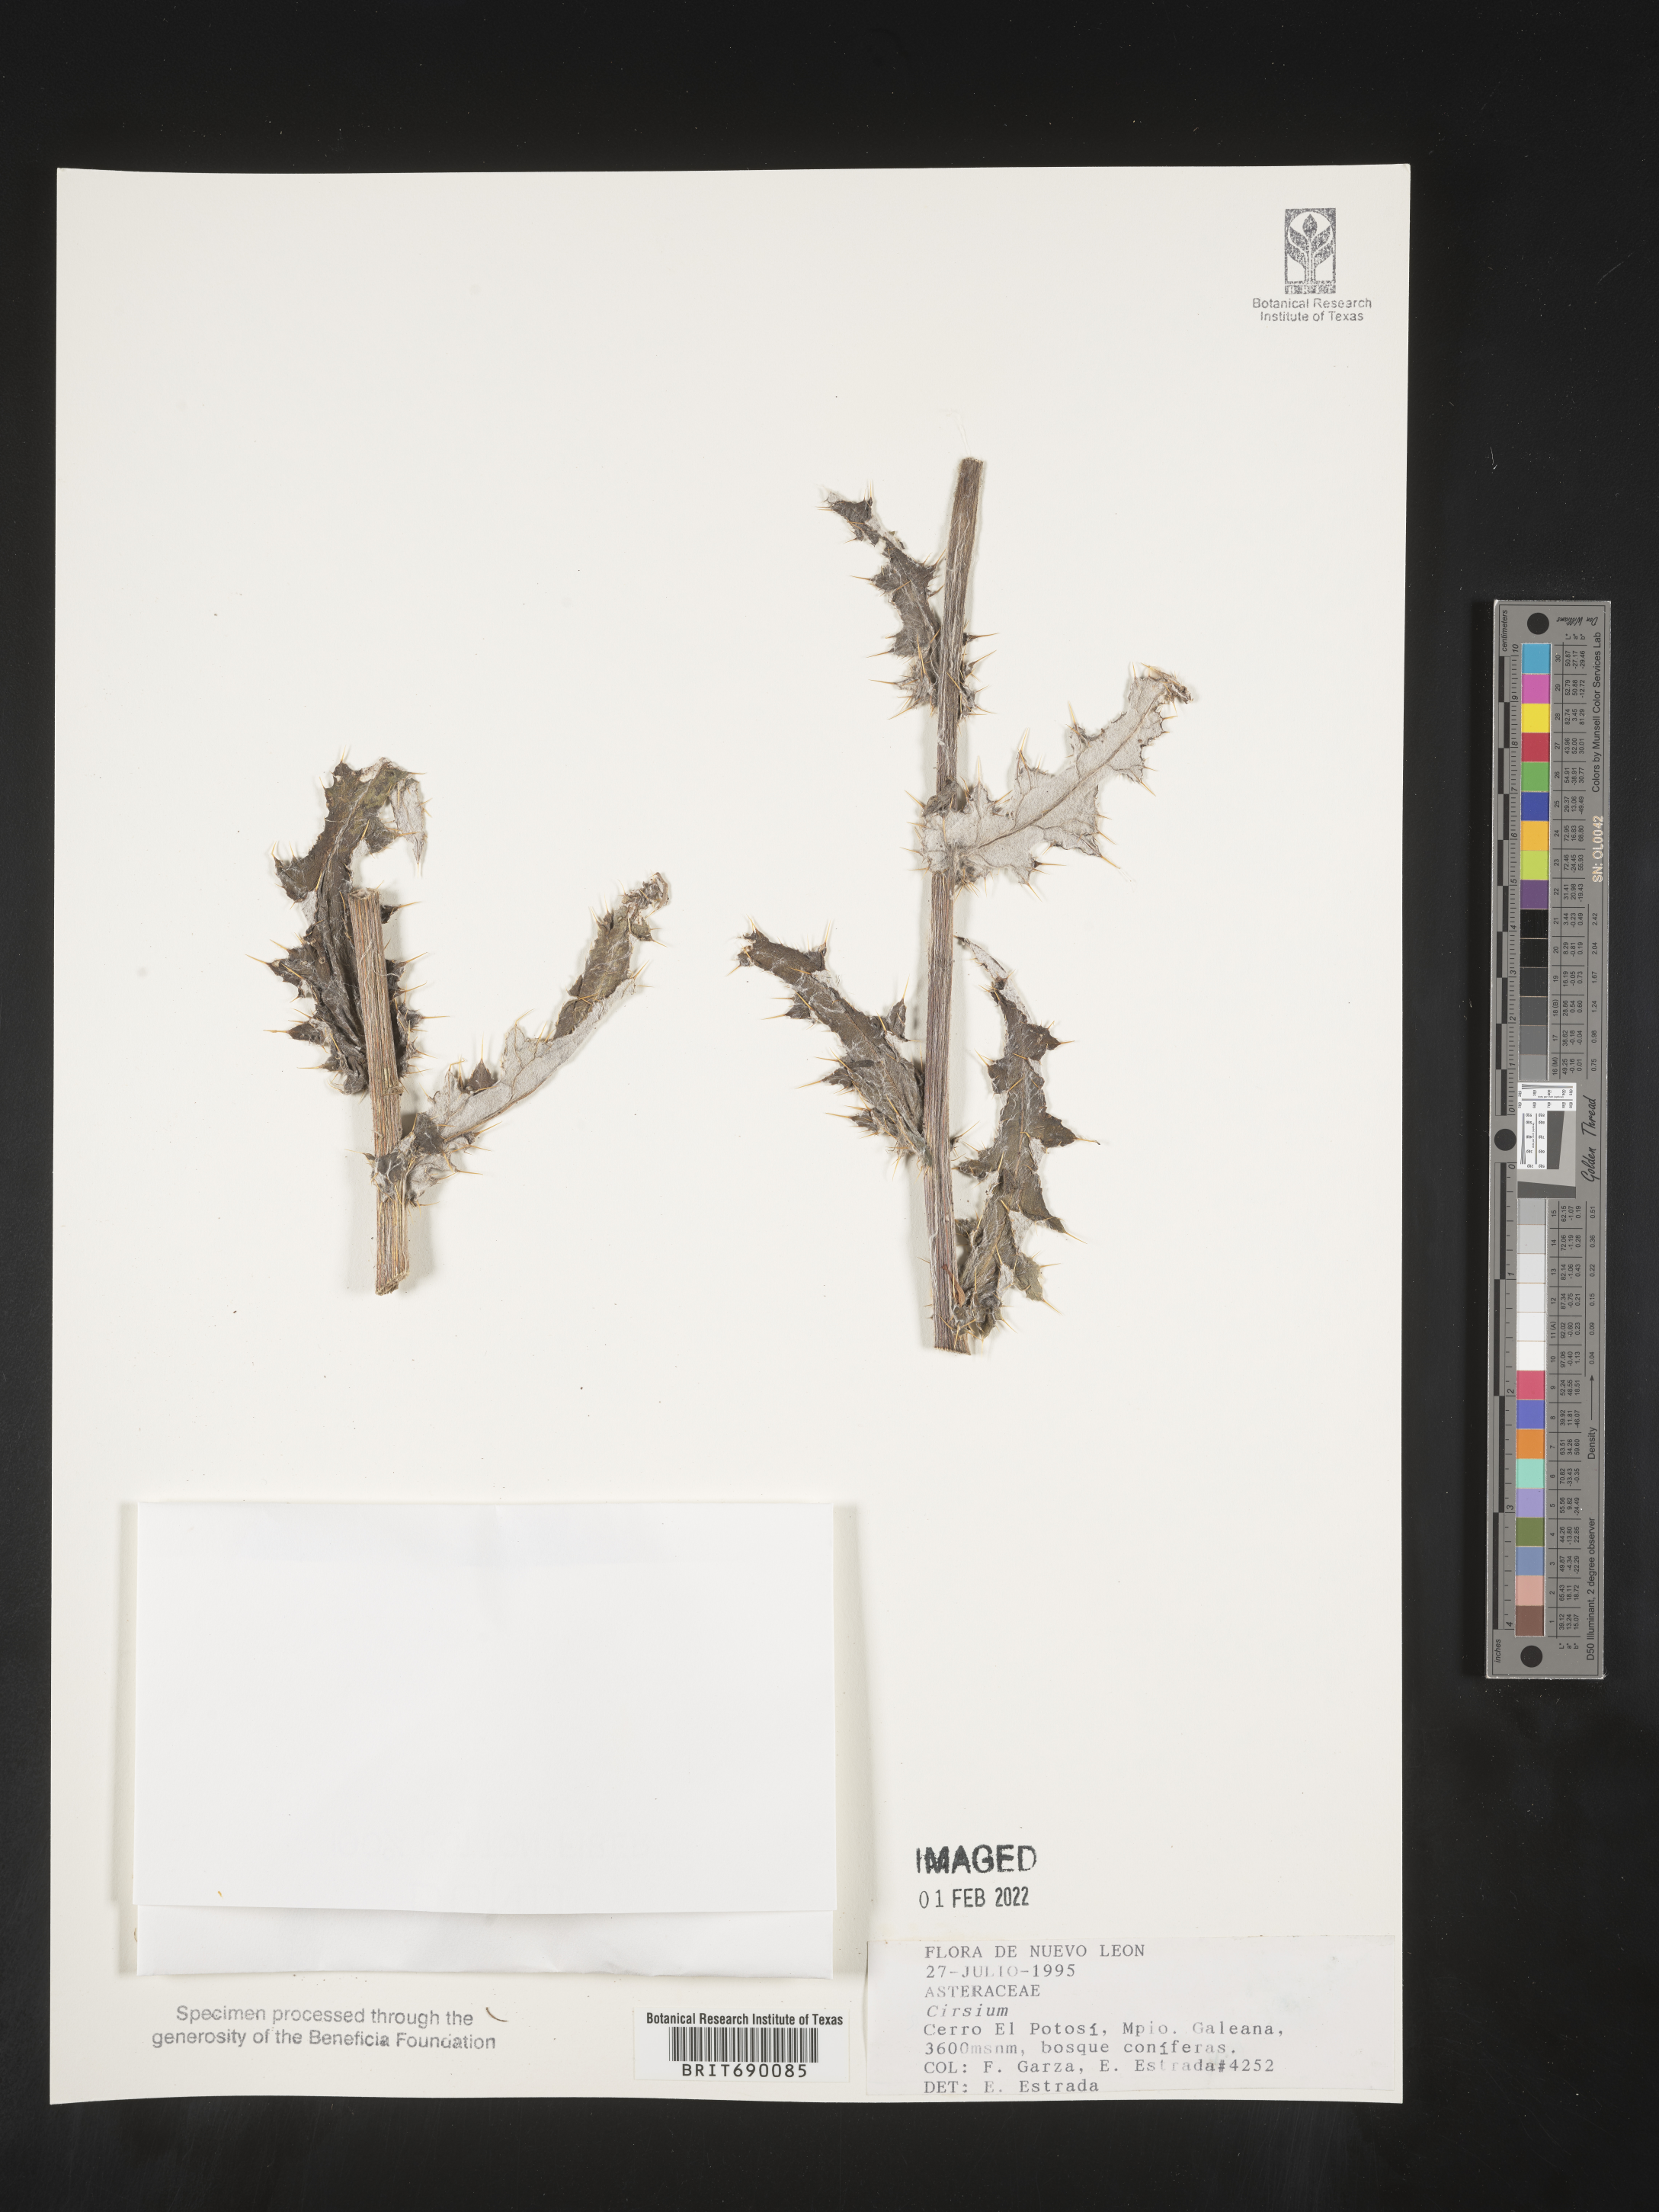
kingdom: Plantae
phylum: Tracheophyta
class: Magnoliopsida
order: Asterales
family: Asteraceae
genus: Cirsium
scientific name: Cirsium
